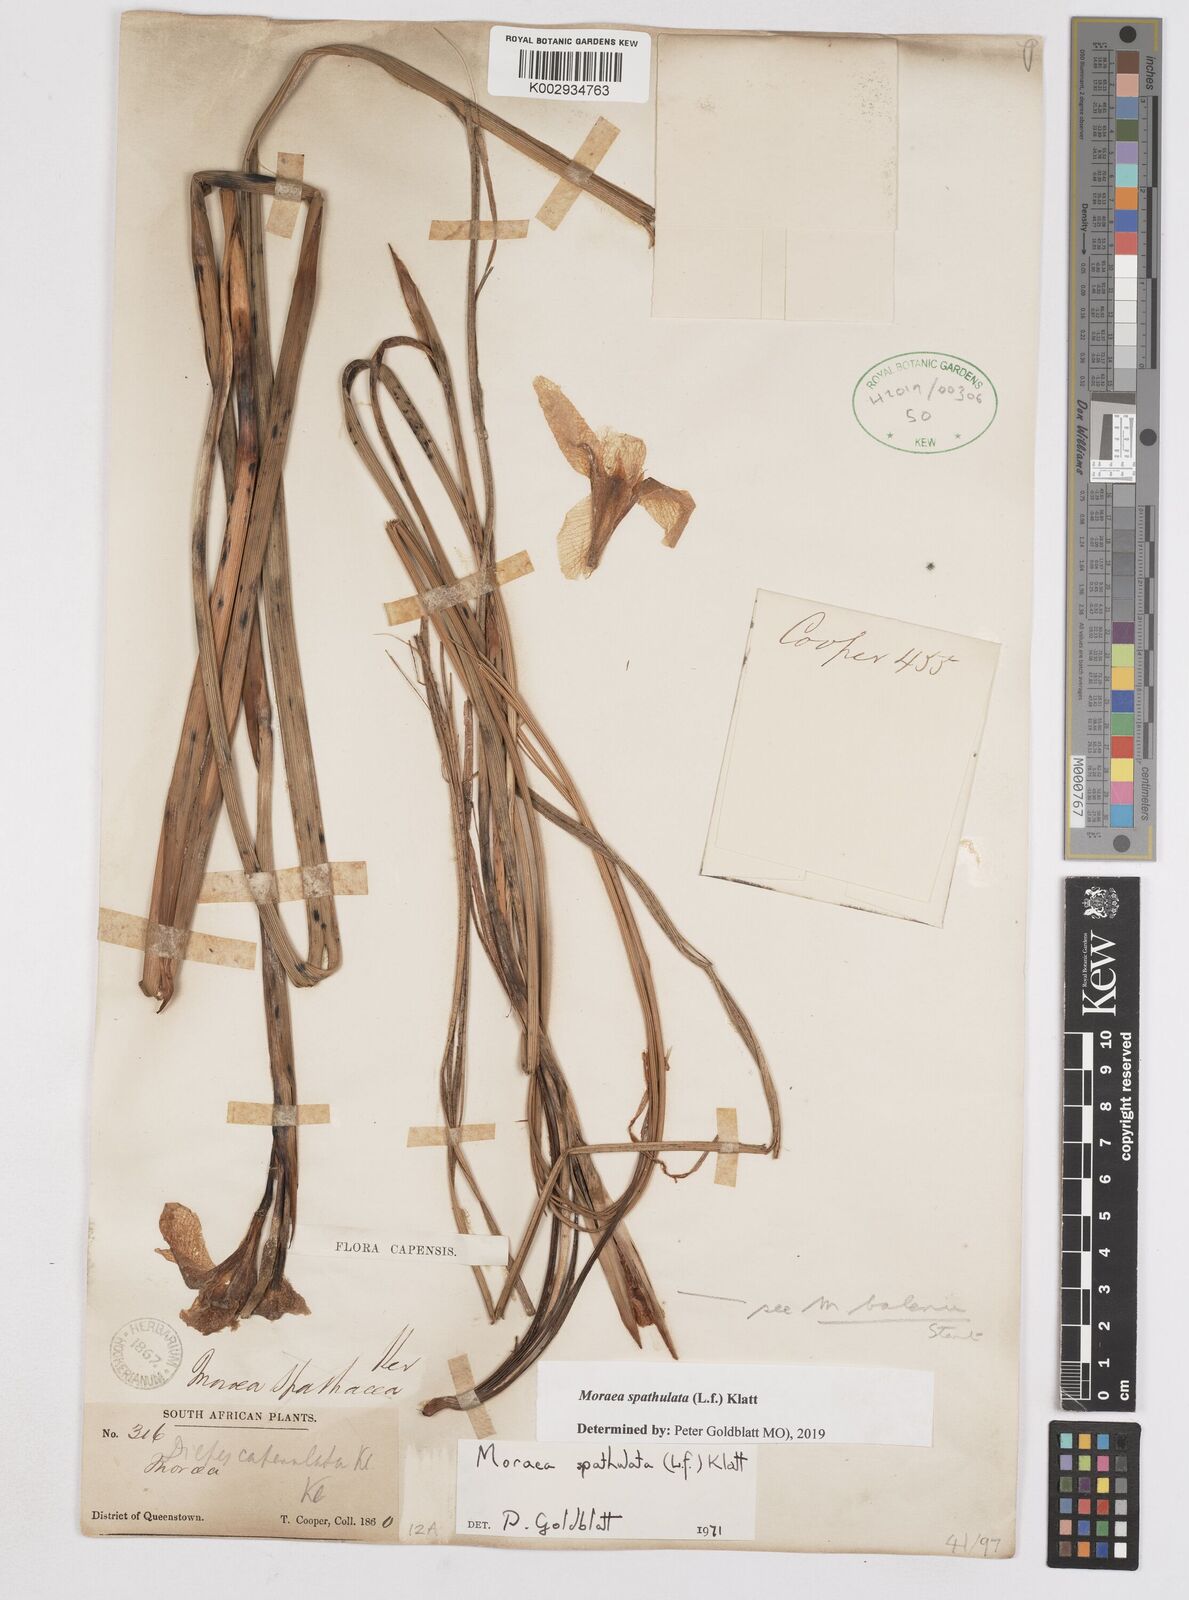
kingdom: Plantae
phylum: Tracheophyta
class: Liliopsida
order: Asparagales
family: Iridaceae
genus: Moraea
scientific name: Moraea spathulata
